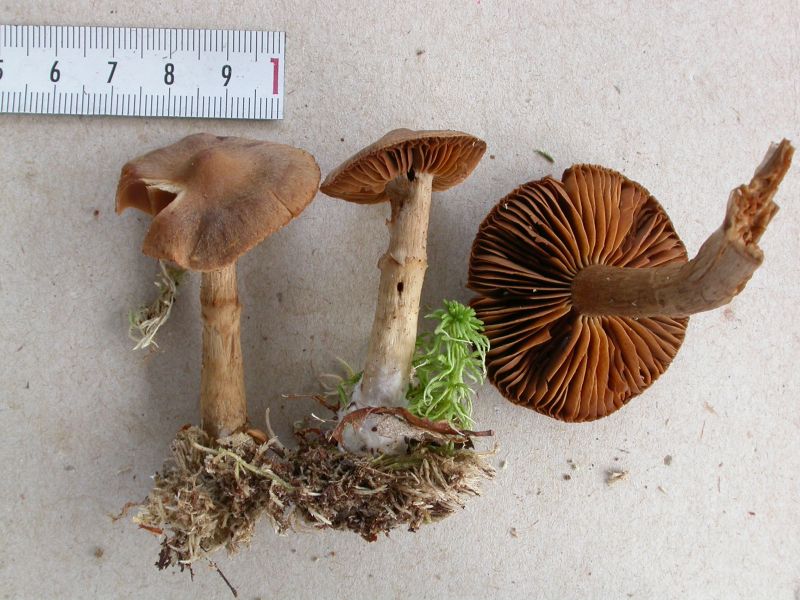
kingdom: Fungi
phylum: Basidiomycota
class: Agaricomycetes
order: Agaricales
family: Cortinariaceae
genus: Cortinarius
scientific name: Cortinarius raphanoides
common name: ræddike-slørhat
